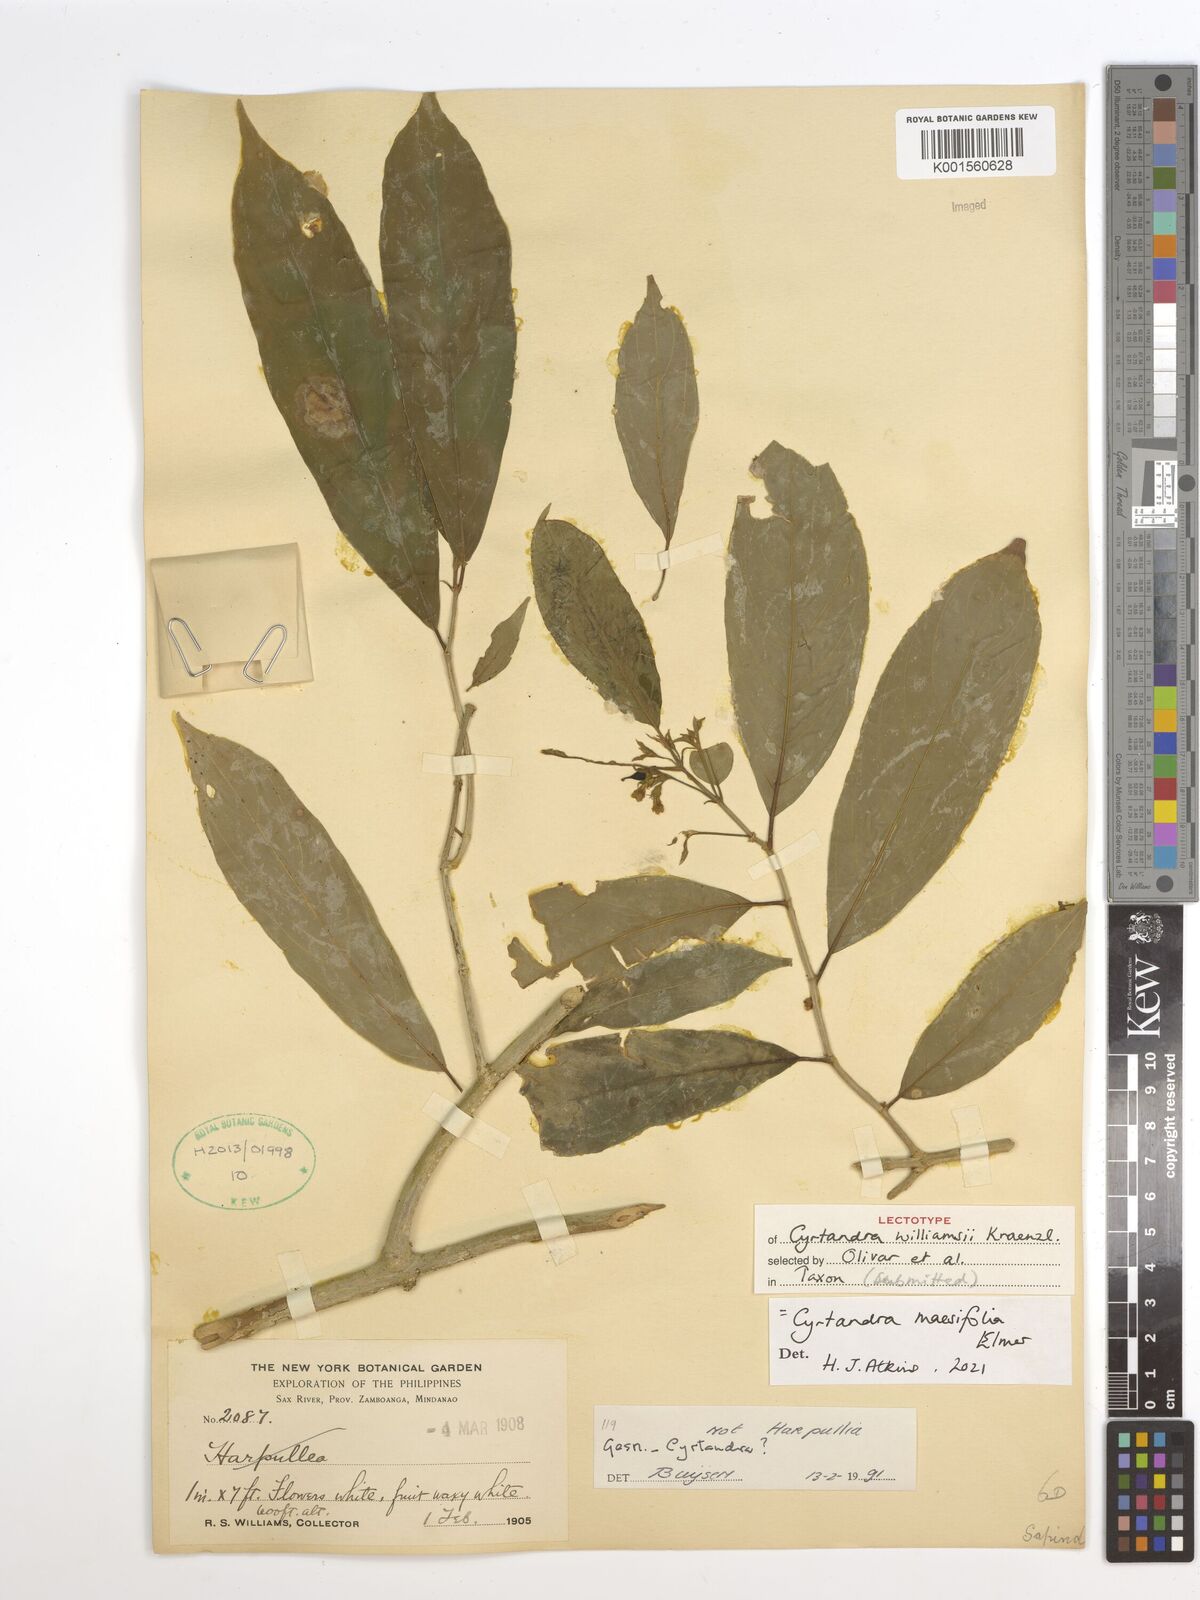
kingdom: Plantae
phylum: Tracheophyta
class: Magnoliopsida
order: Lamiales
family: Gesneriaceae
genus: Cyrtandra
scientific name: Cyrtandra maesifolia
